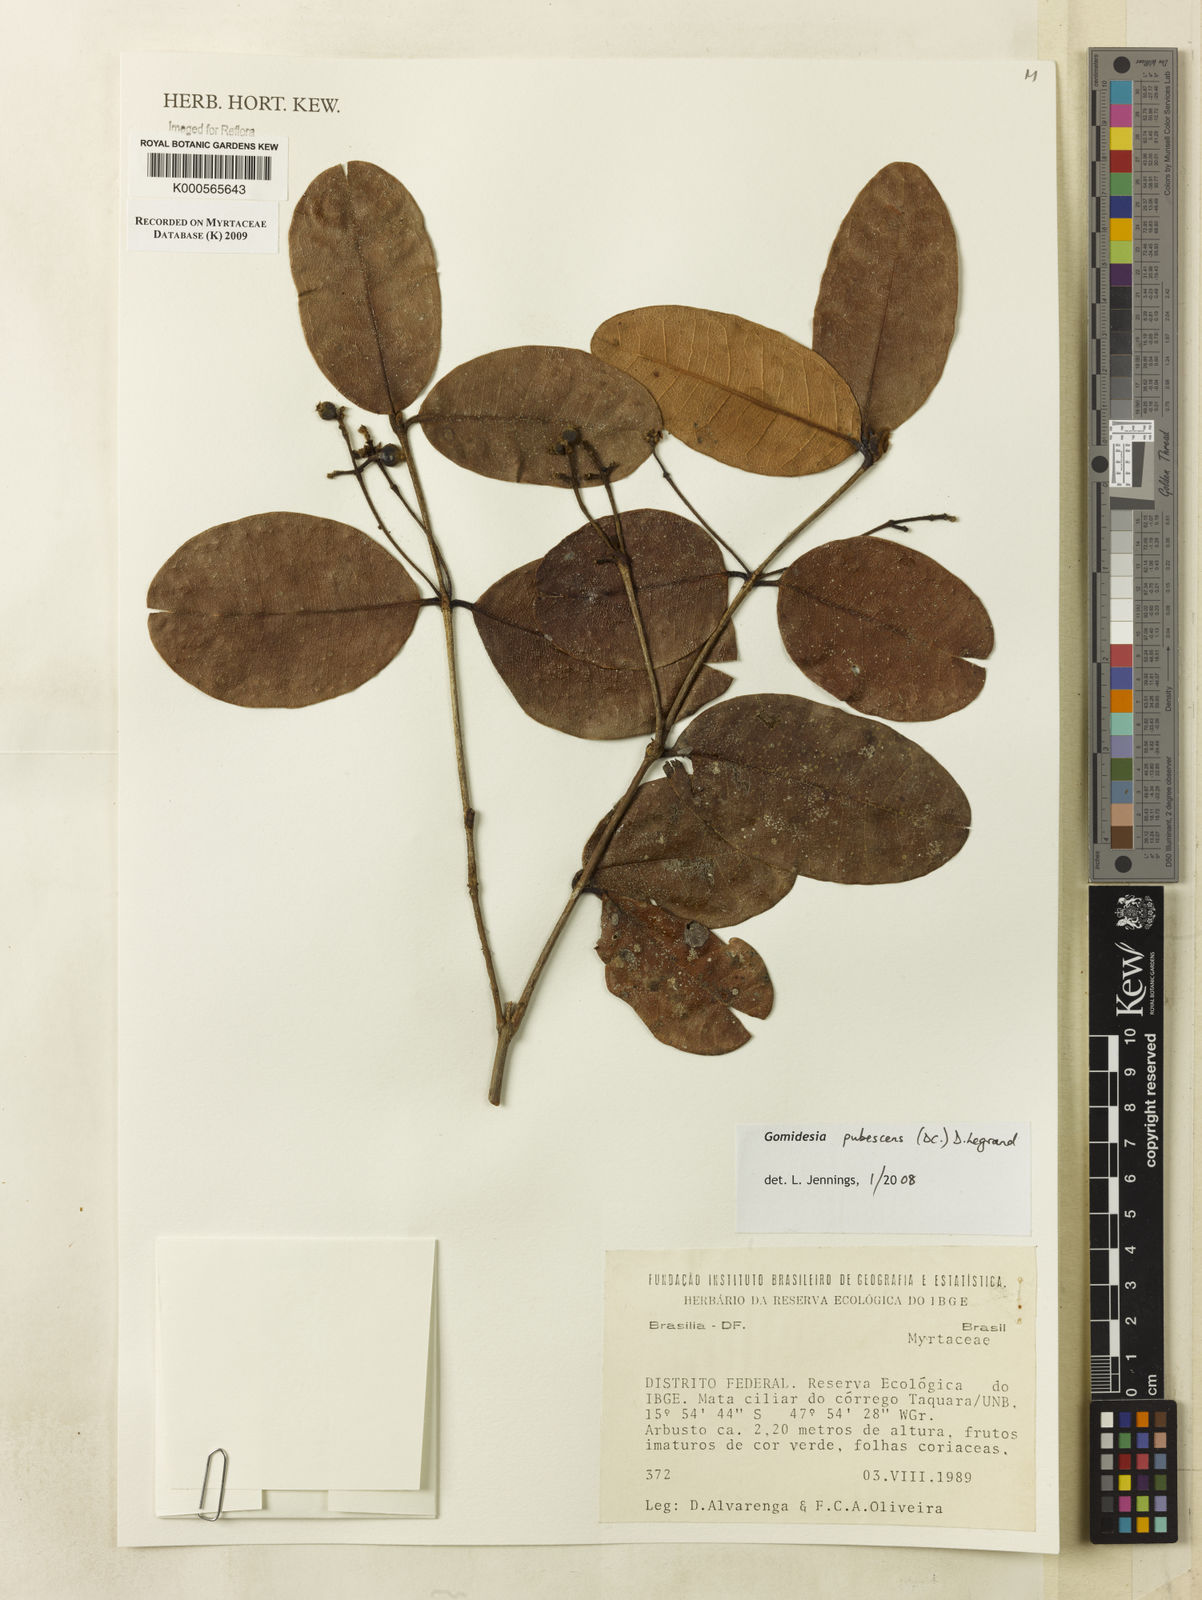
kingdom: Plantae
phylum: Tracheophyta
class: Magnoliopsida
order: Myrtales
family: Myrtaceae
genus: Myrcia
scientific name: Myrcia pubescens
